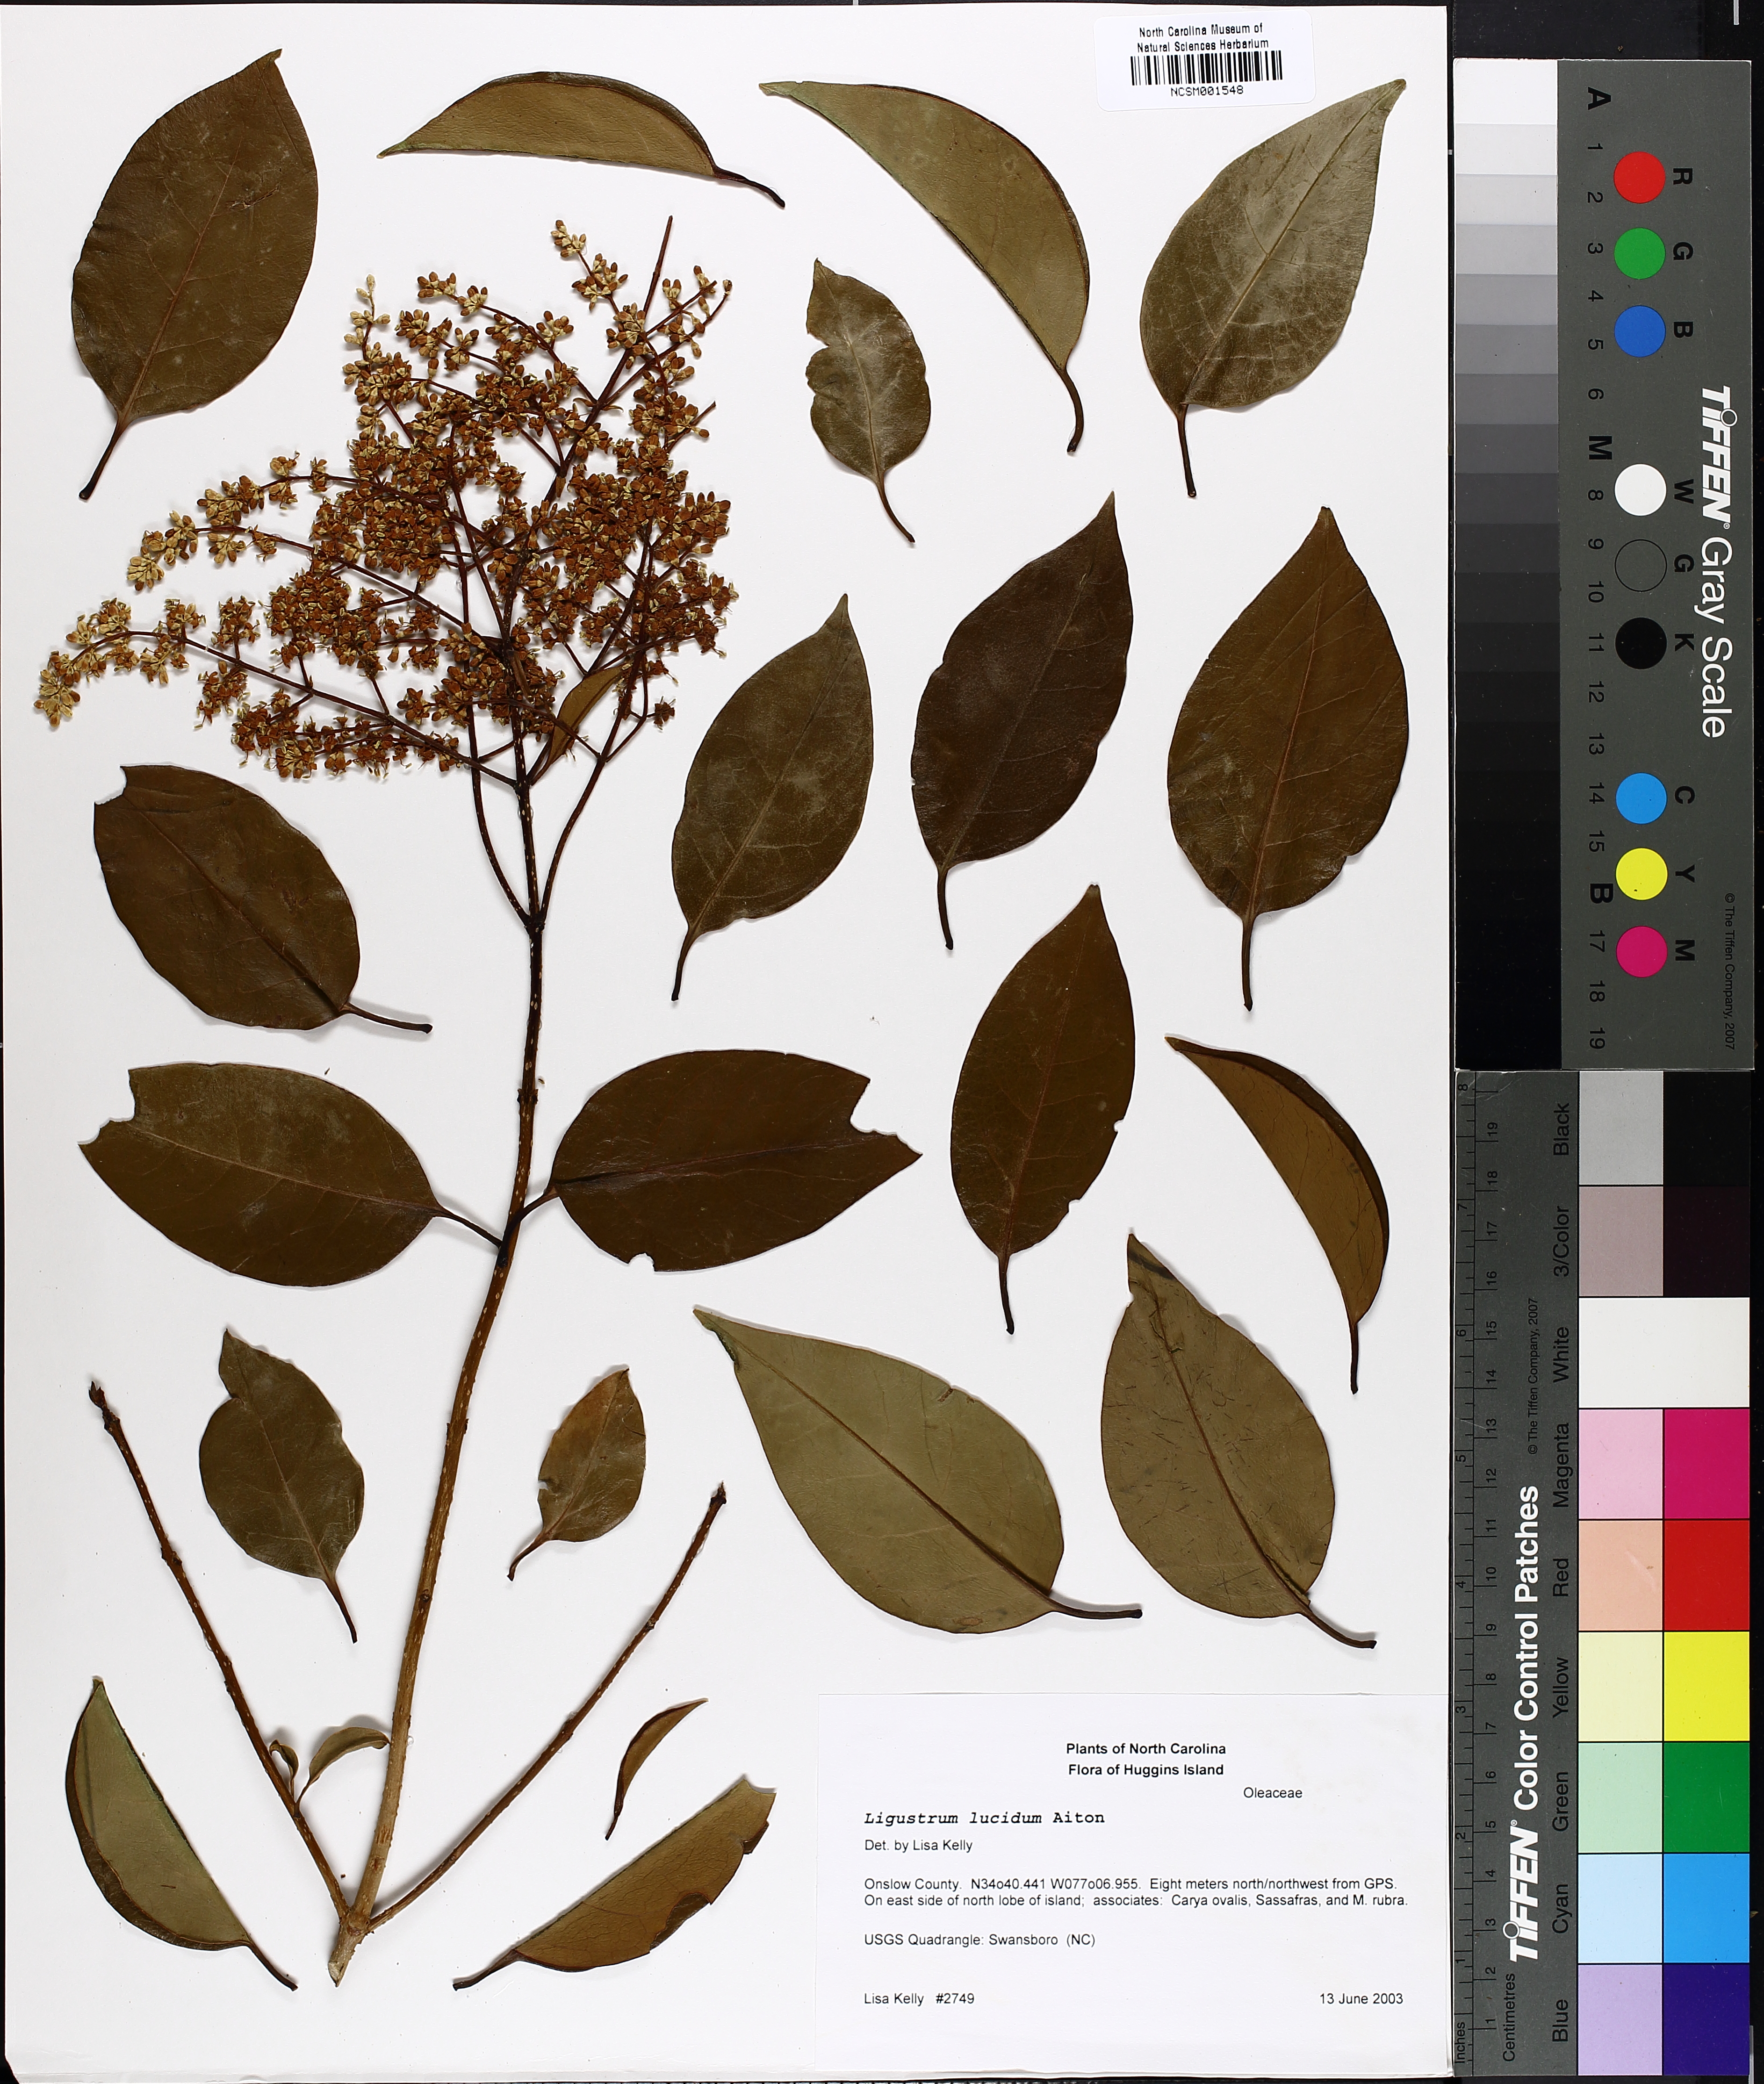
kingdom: Plantae
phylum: Tracheophyta
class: Magnoliopsida
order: Lamiales
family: Oleaceae
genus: Ligustrum
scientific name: Ligustrum lucidum
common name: Glossy privet
